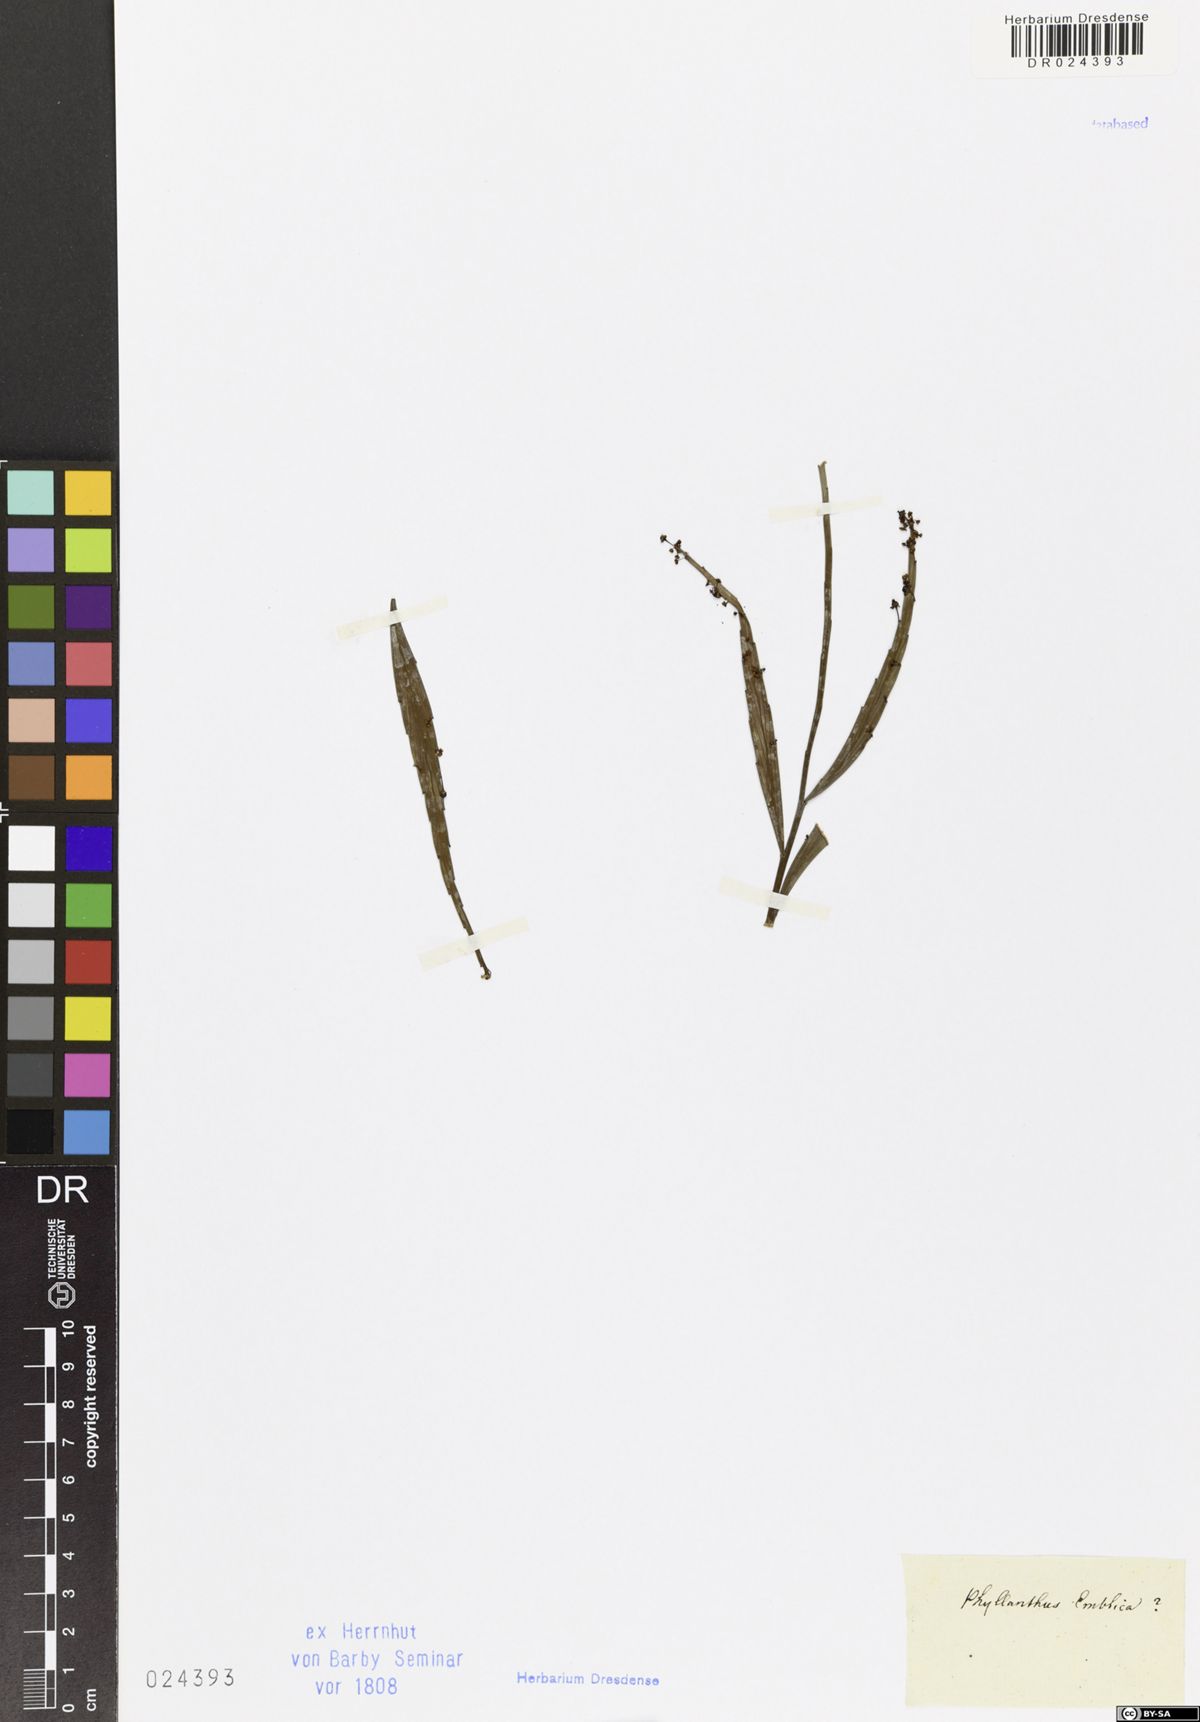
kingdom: Plantae
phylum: Tracheophyta
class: Magnoliopsida
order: Malpighiales
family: Phyllanthaceae
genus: Phyllanthus
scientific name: Phyllanthus emblica
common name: Indian gooseberry
